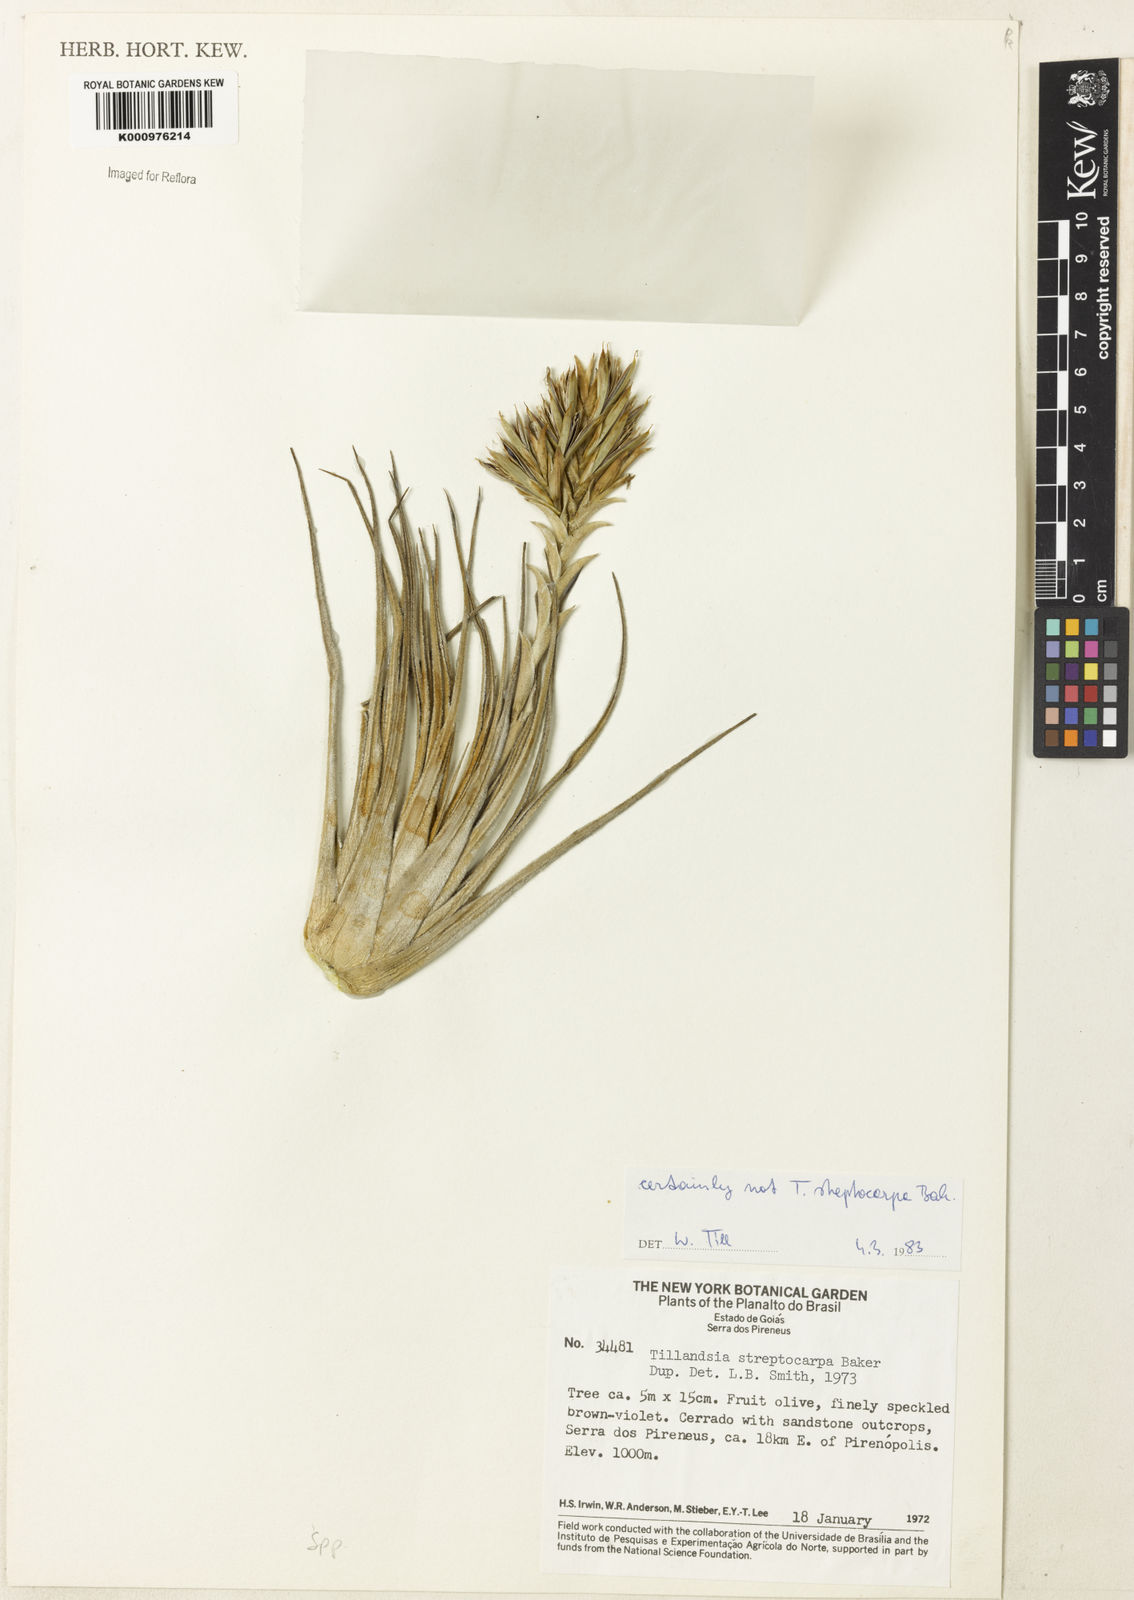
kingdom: Plantae
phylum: Tracheophyta
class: Liliopsida
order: Poales
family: Bromeliaceae
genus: Tillandsia
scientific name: Tillandsia
